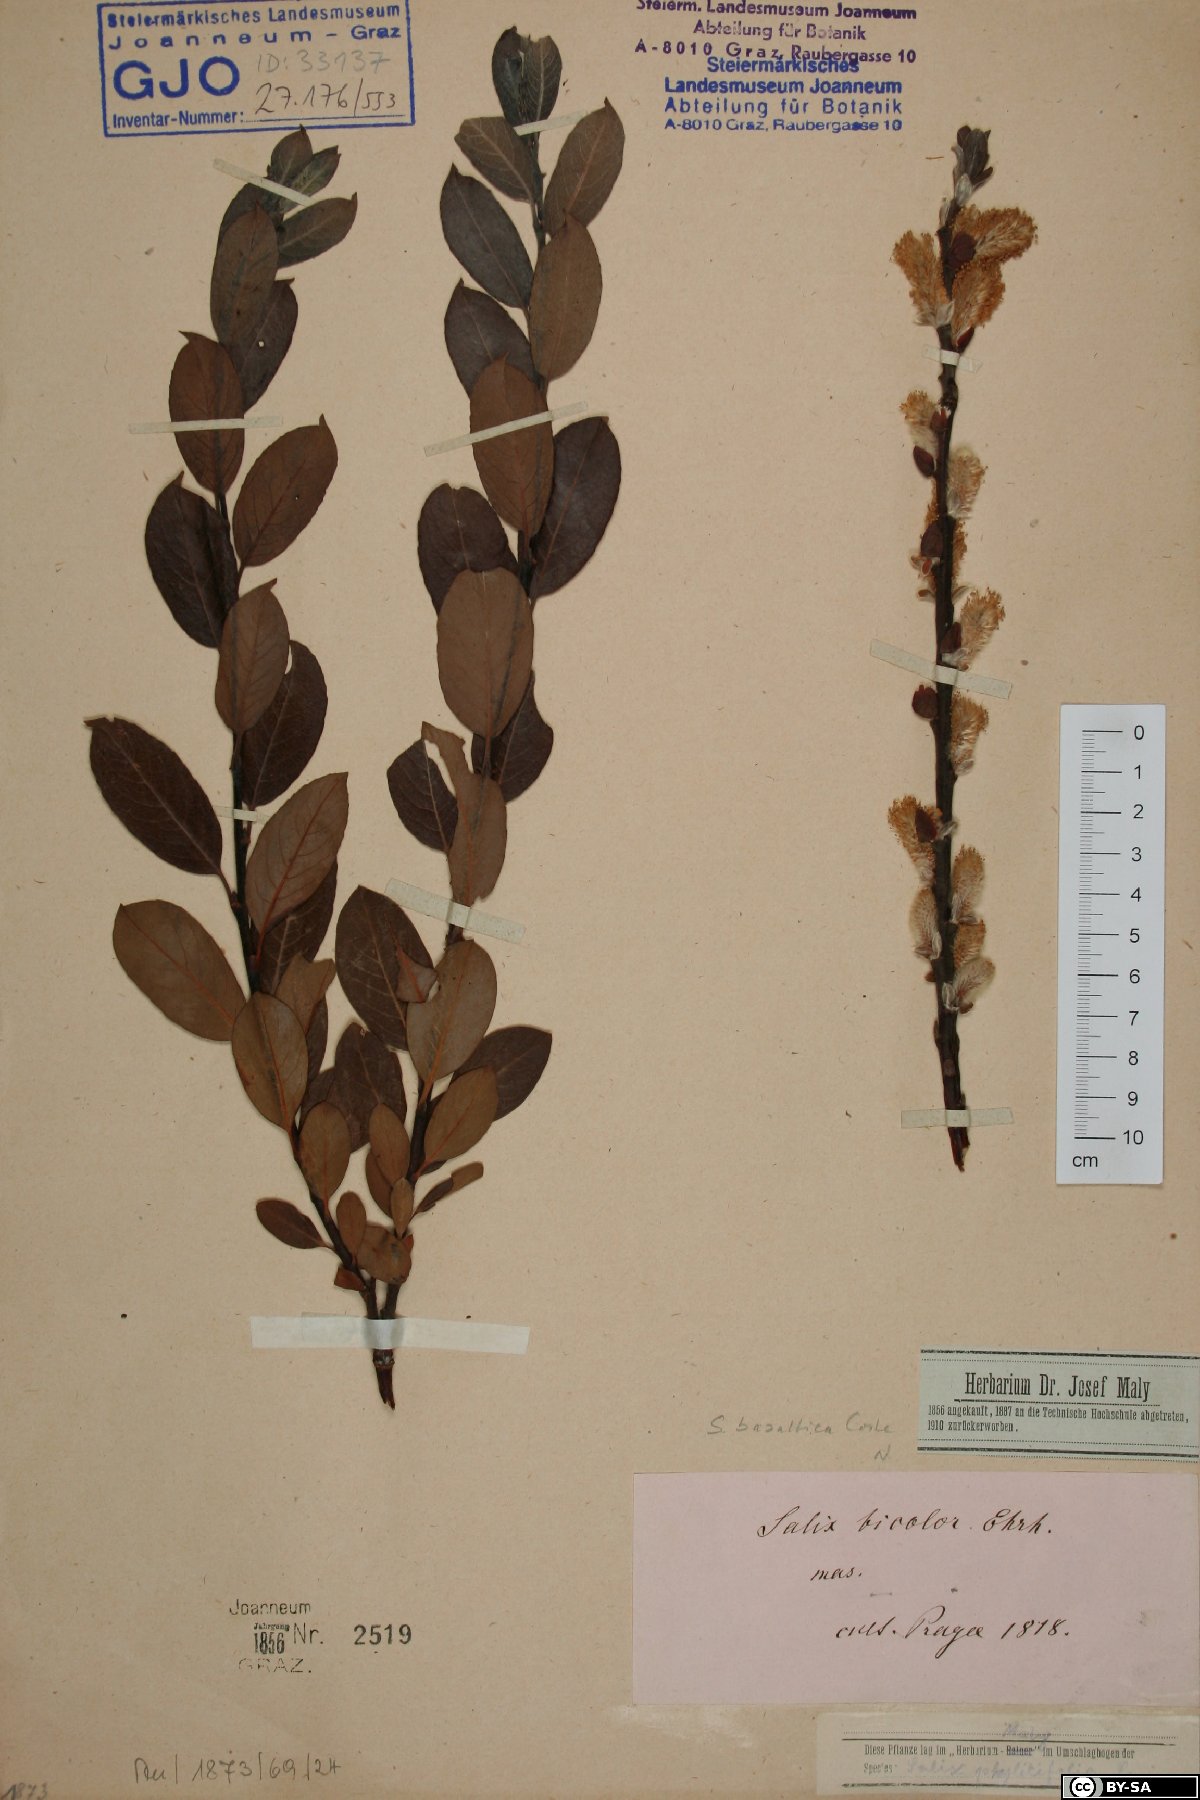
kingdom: Plantae
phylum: Tracheophyta
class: Magnoliopsida
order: Malpighiales
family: Salicaceae
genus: Salix
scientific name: Salix basaltica
